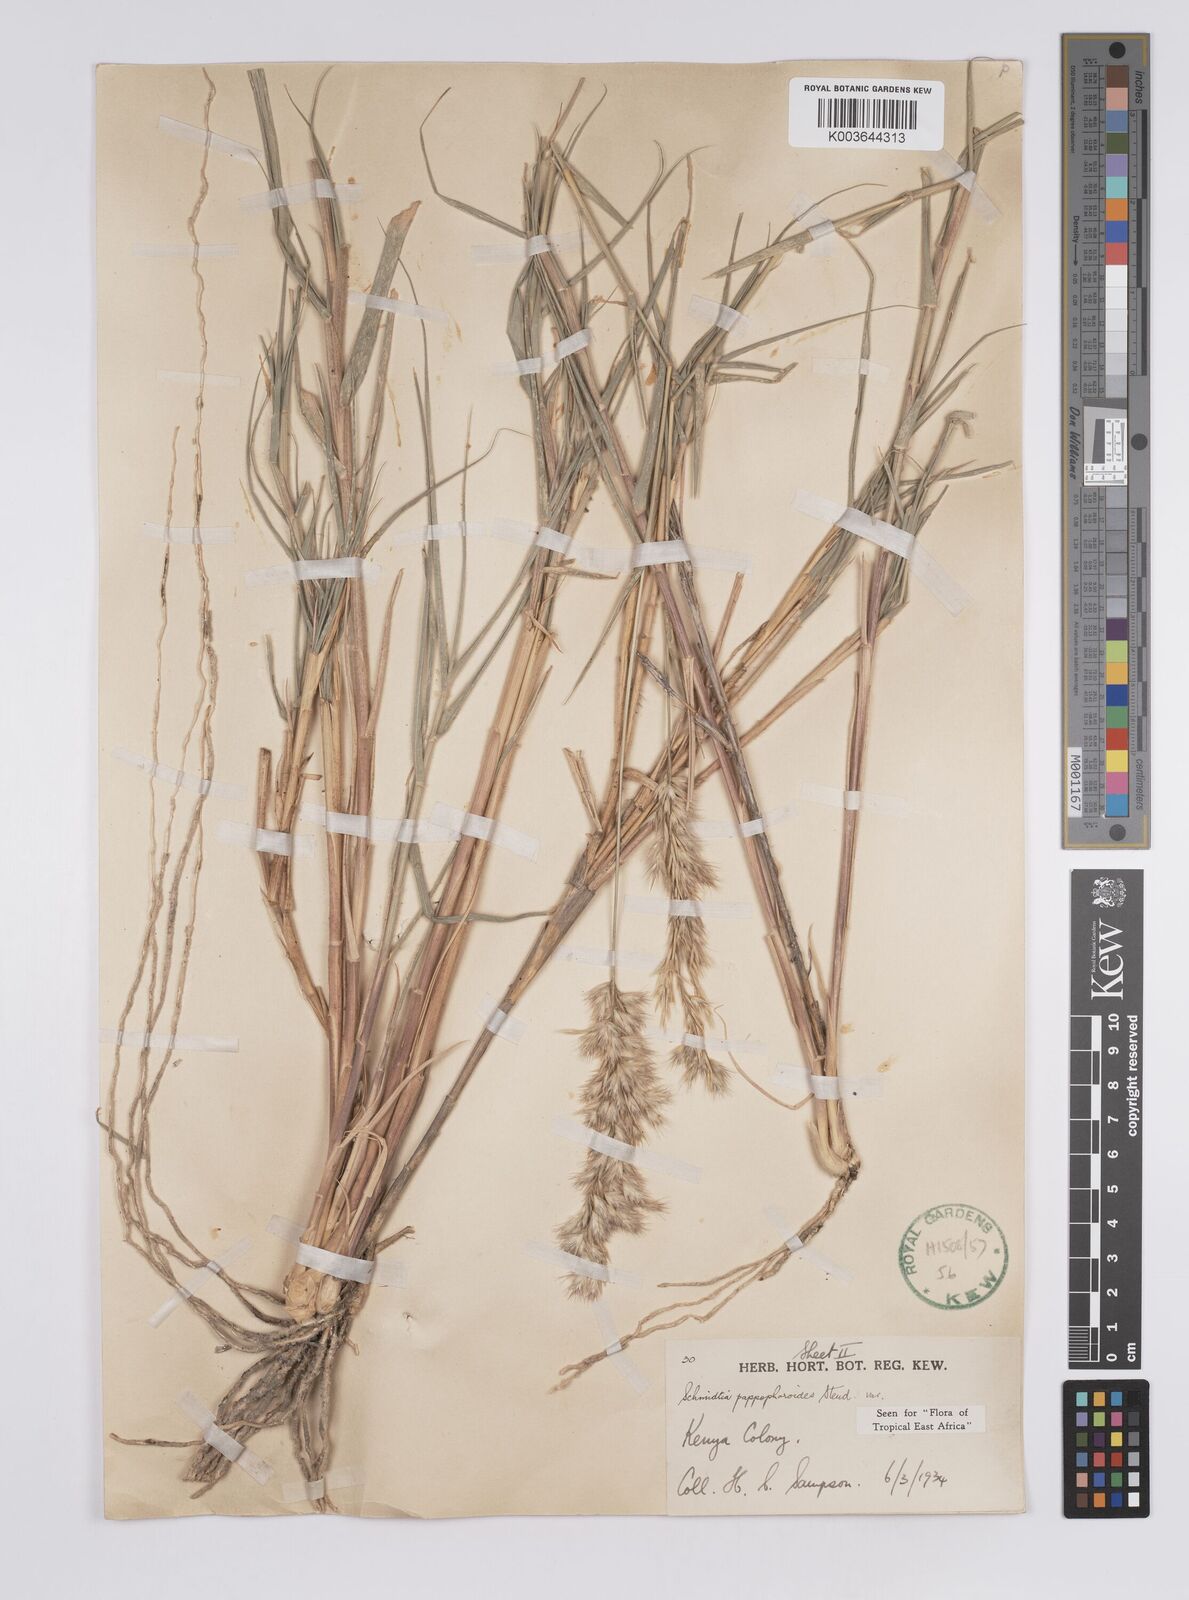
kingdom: Plantae
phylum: Tracheophyta
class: Liliopsida
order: Poales
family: Poaceae
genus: Schmidtia
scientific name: Schmidtia pappophoroides
